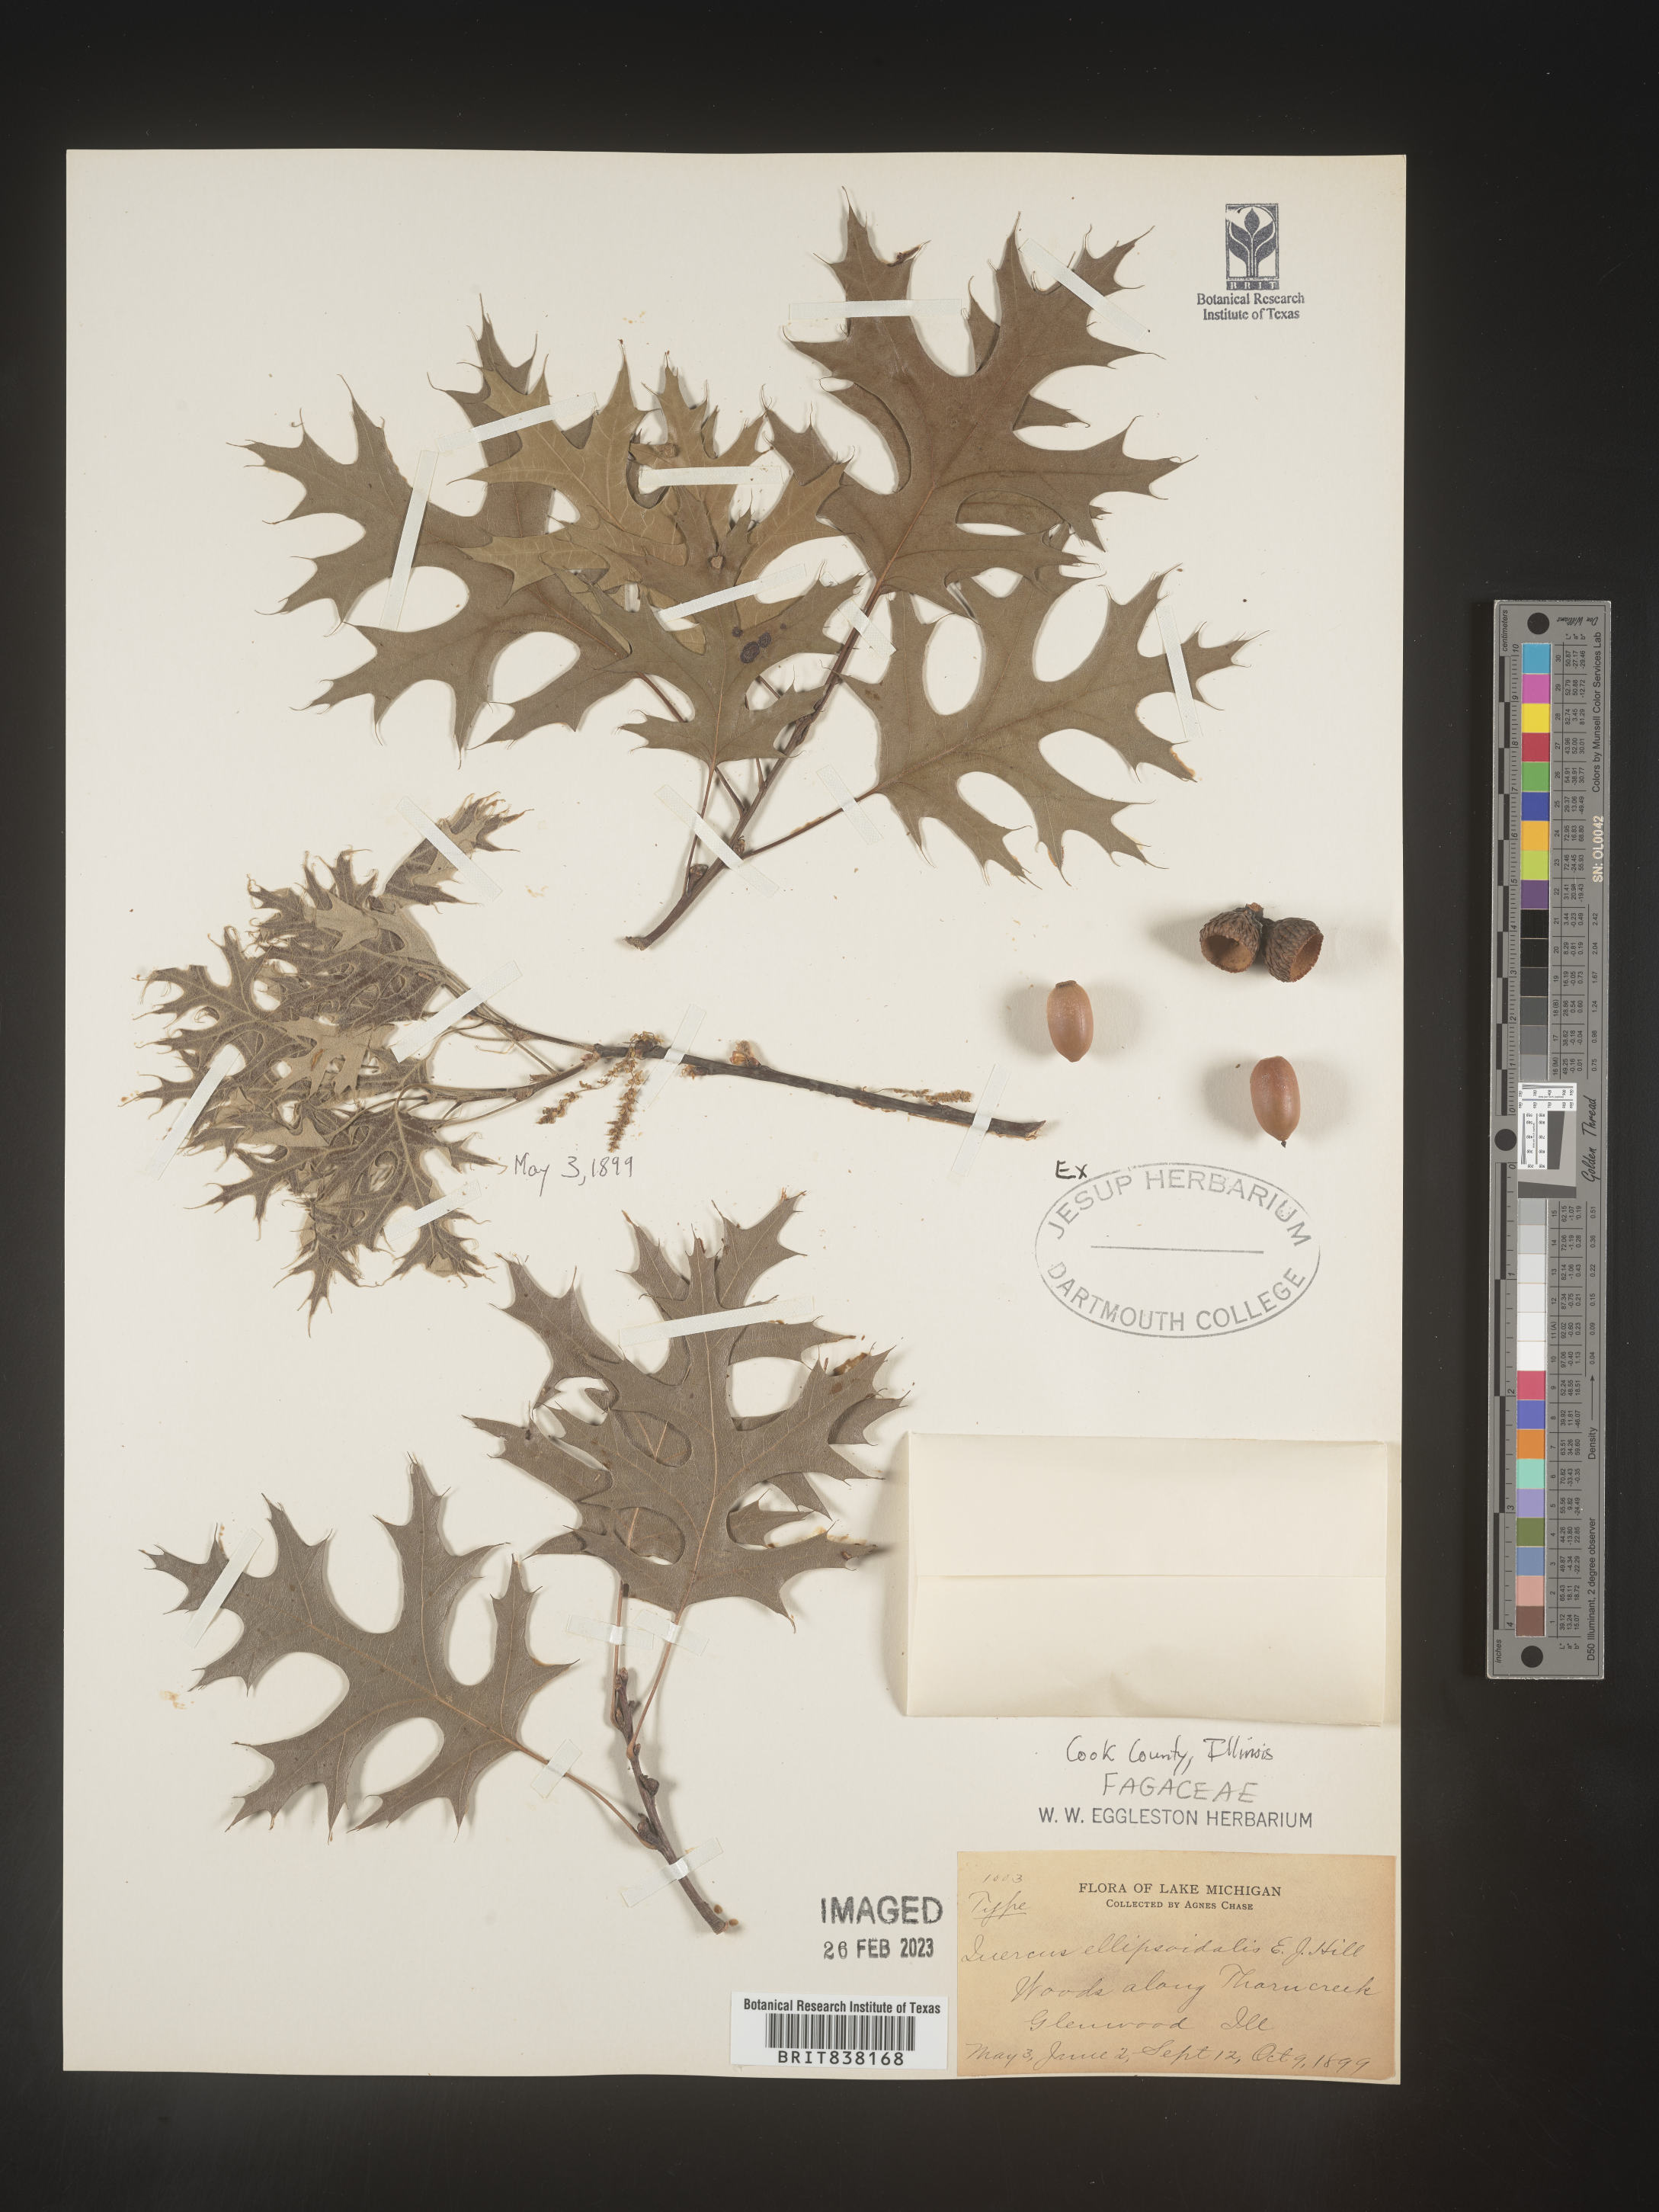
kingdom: Plantae
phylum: Tracheophyta
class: Magnoliopsida
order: Fagales
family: Fagaceae
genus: Quercus
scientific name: Quercus ellipsoidalis
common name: Hill's oak
